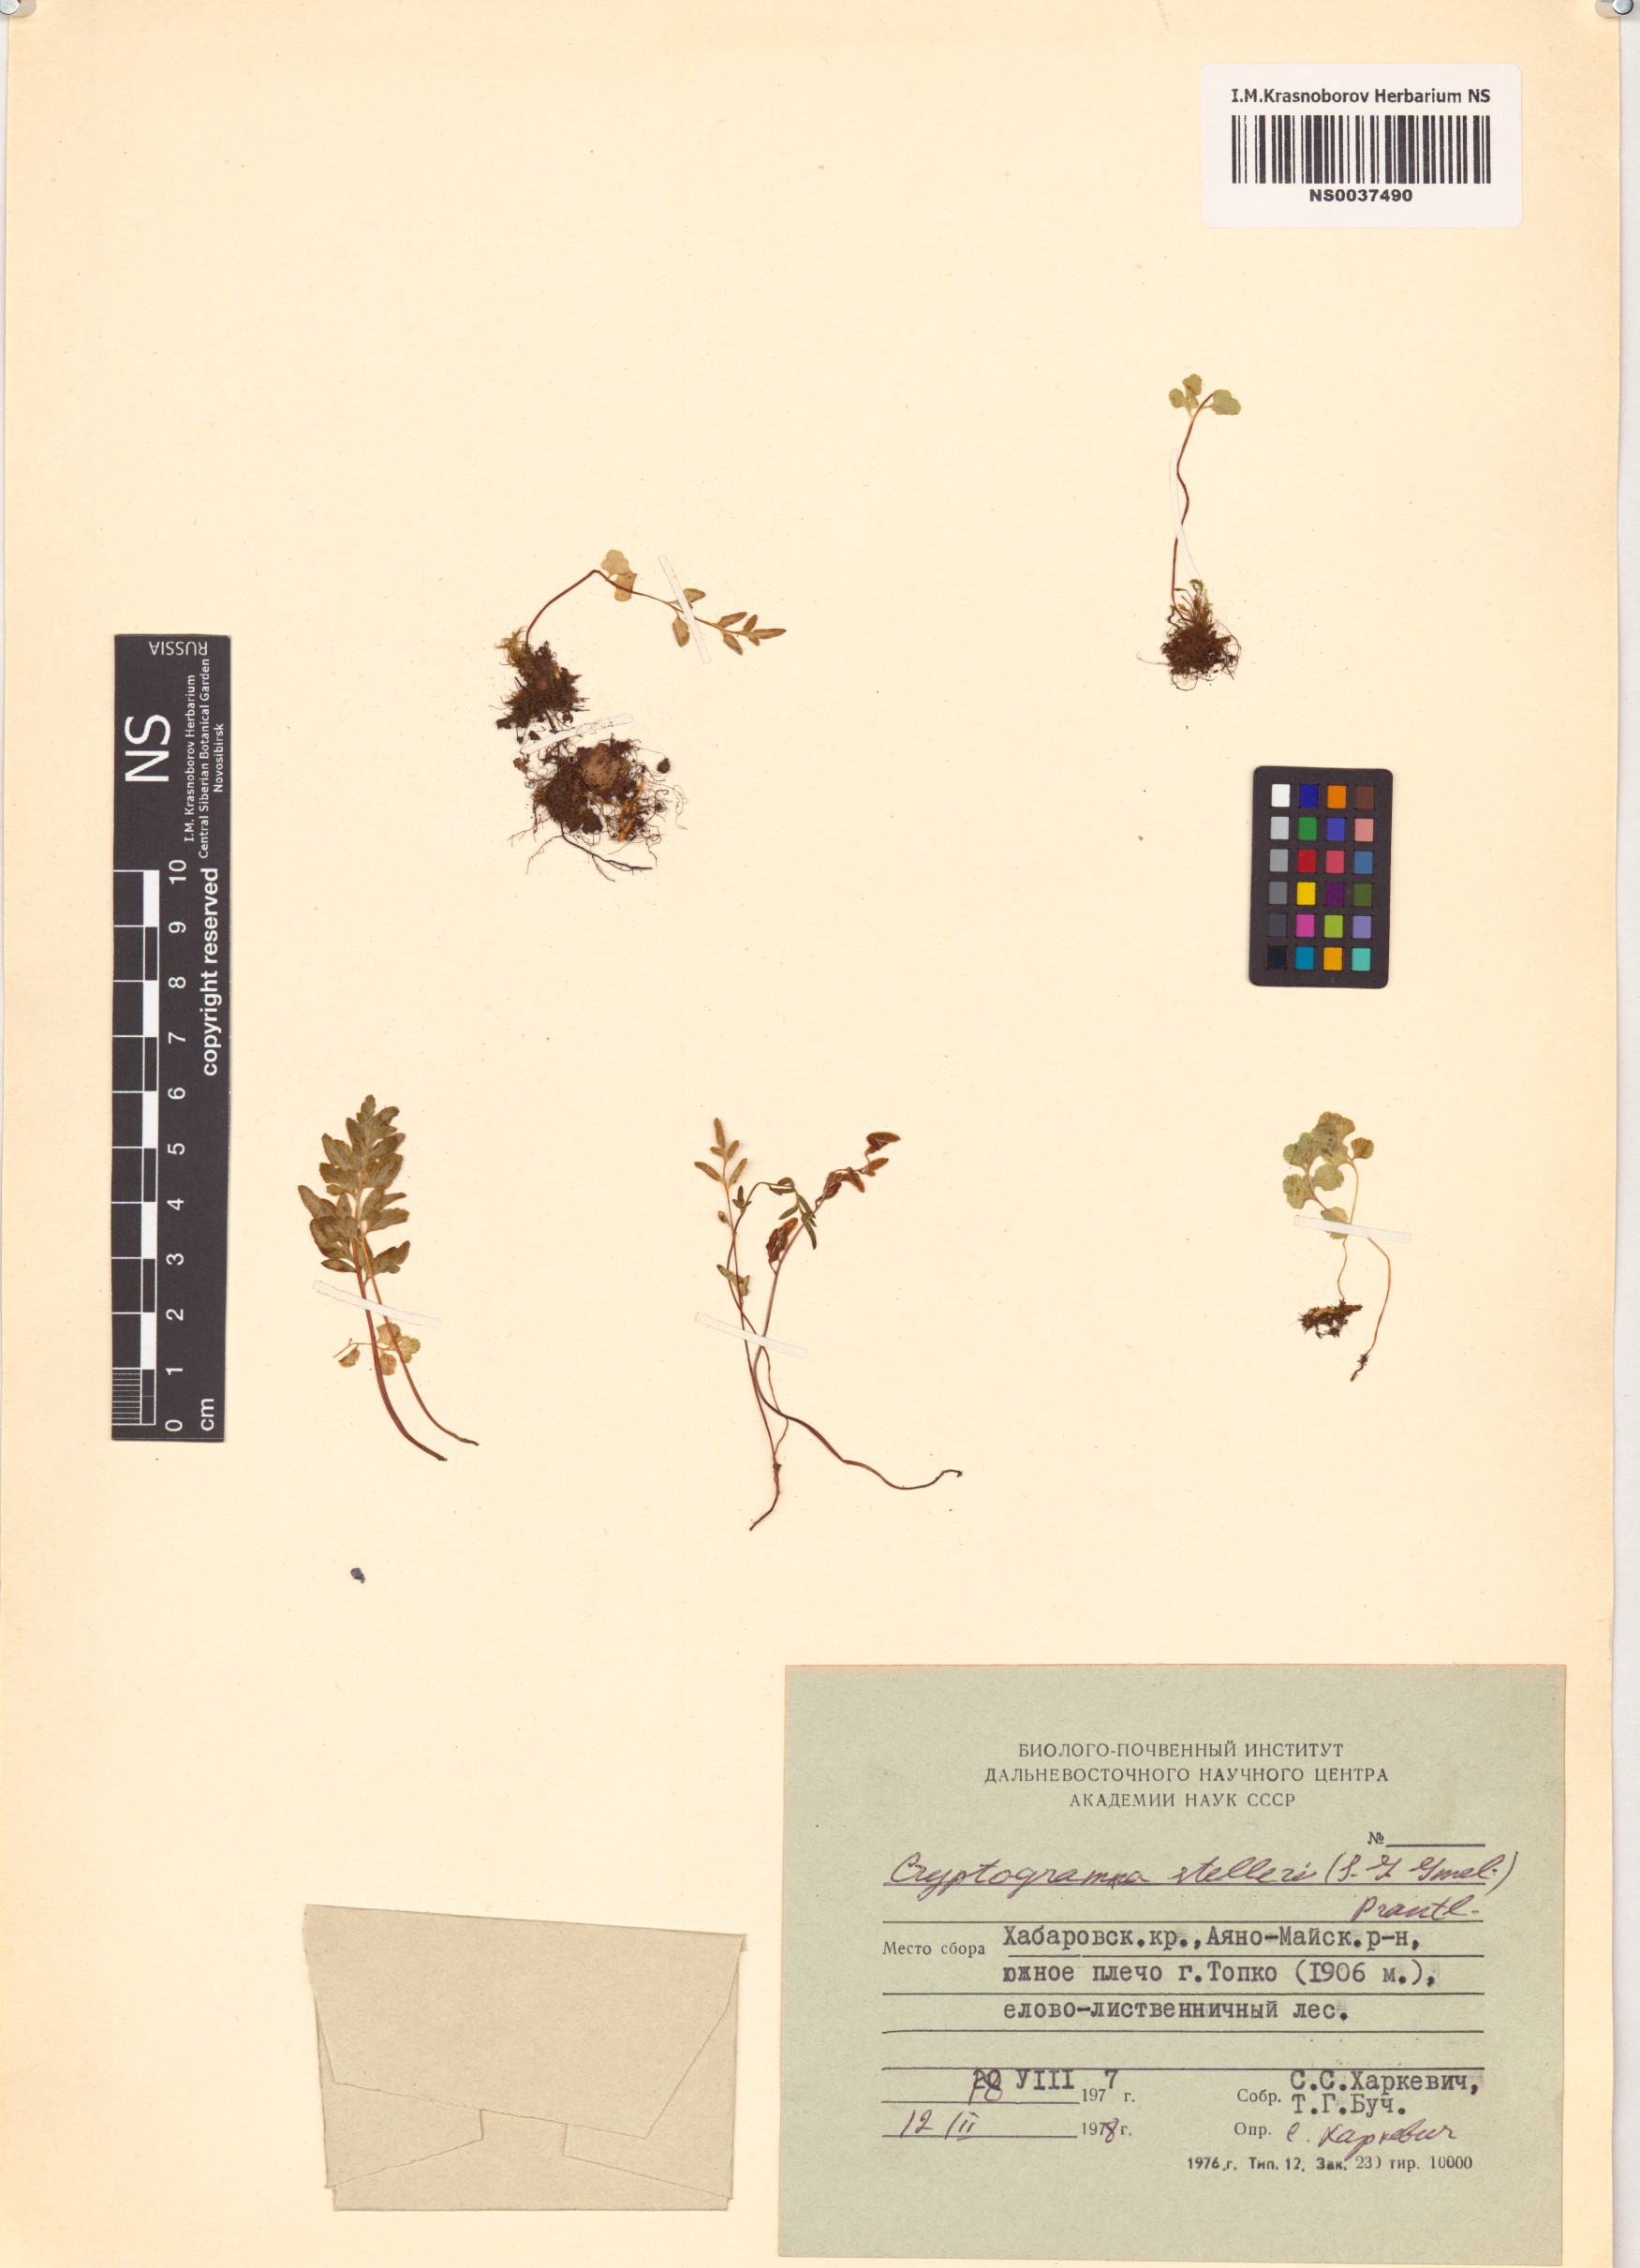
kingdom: Plantae
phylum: Tracheophyta
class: Polypodiopsida
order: Polypodiales
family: Pteridaceae
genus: Cryptogramma
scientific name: Cryptogramma stelleri
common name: Cliff-brake
